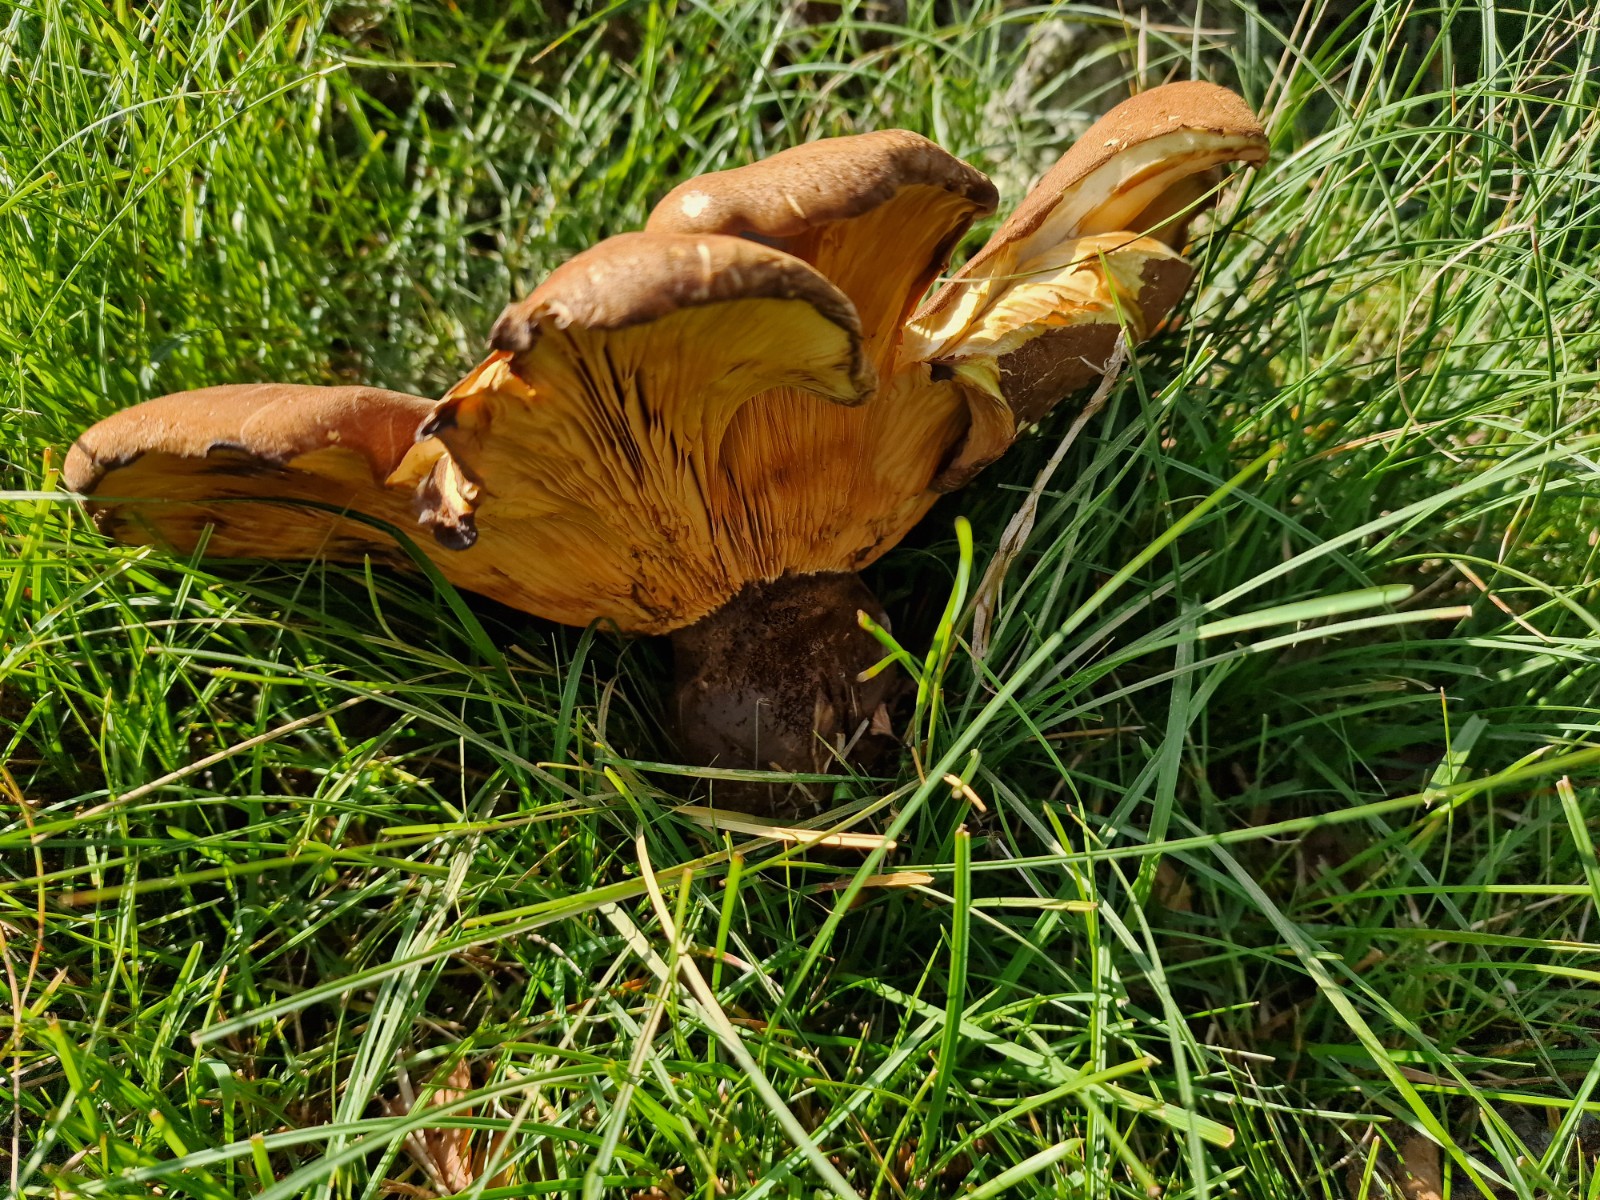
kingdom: Fungi
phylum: Basidiomycota
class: Agaricomycetes
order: Boletales
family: Tapinellaceae
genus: Tapinella
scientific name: Tapinella atrotomentosa
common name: sortfiltet viftesvamp
